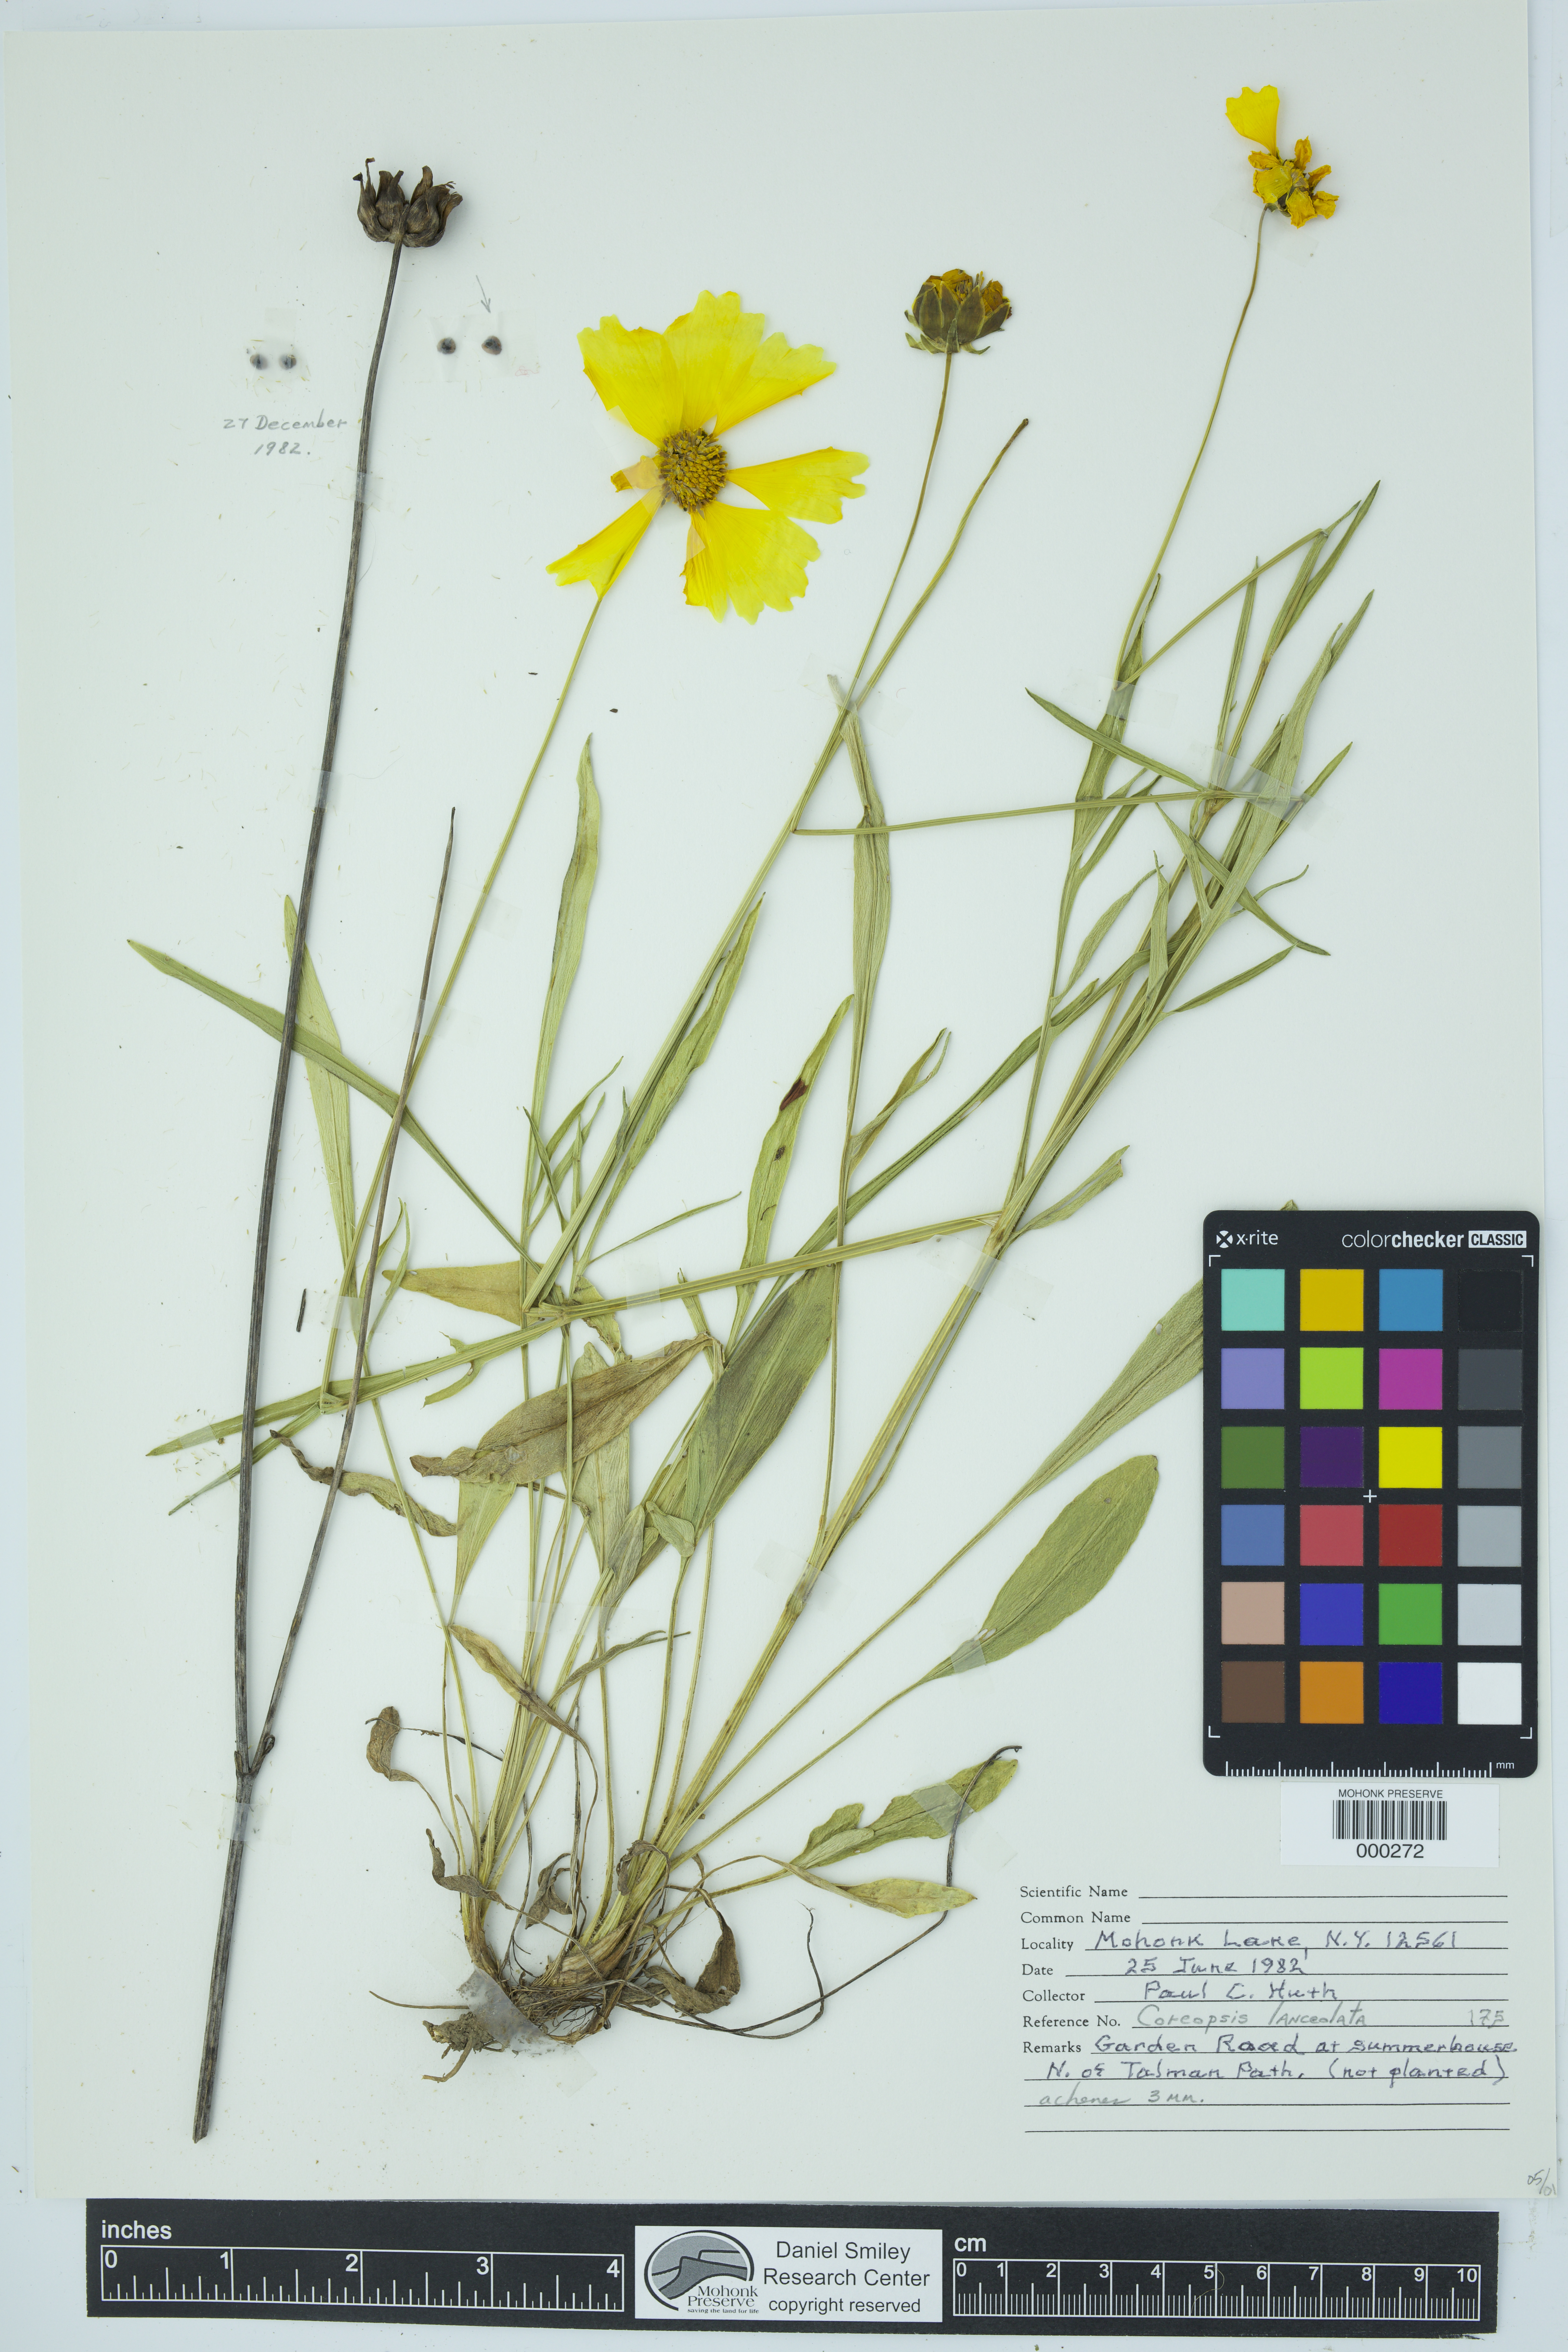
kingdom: Plantae
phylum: Tracheophyta
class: Magnoliopsida
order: Asterales
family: Asteraceae
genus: Coreopsis
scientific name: Coreopsis lanceolata
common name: Garden coreopsis
